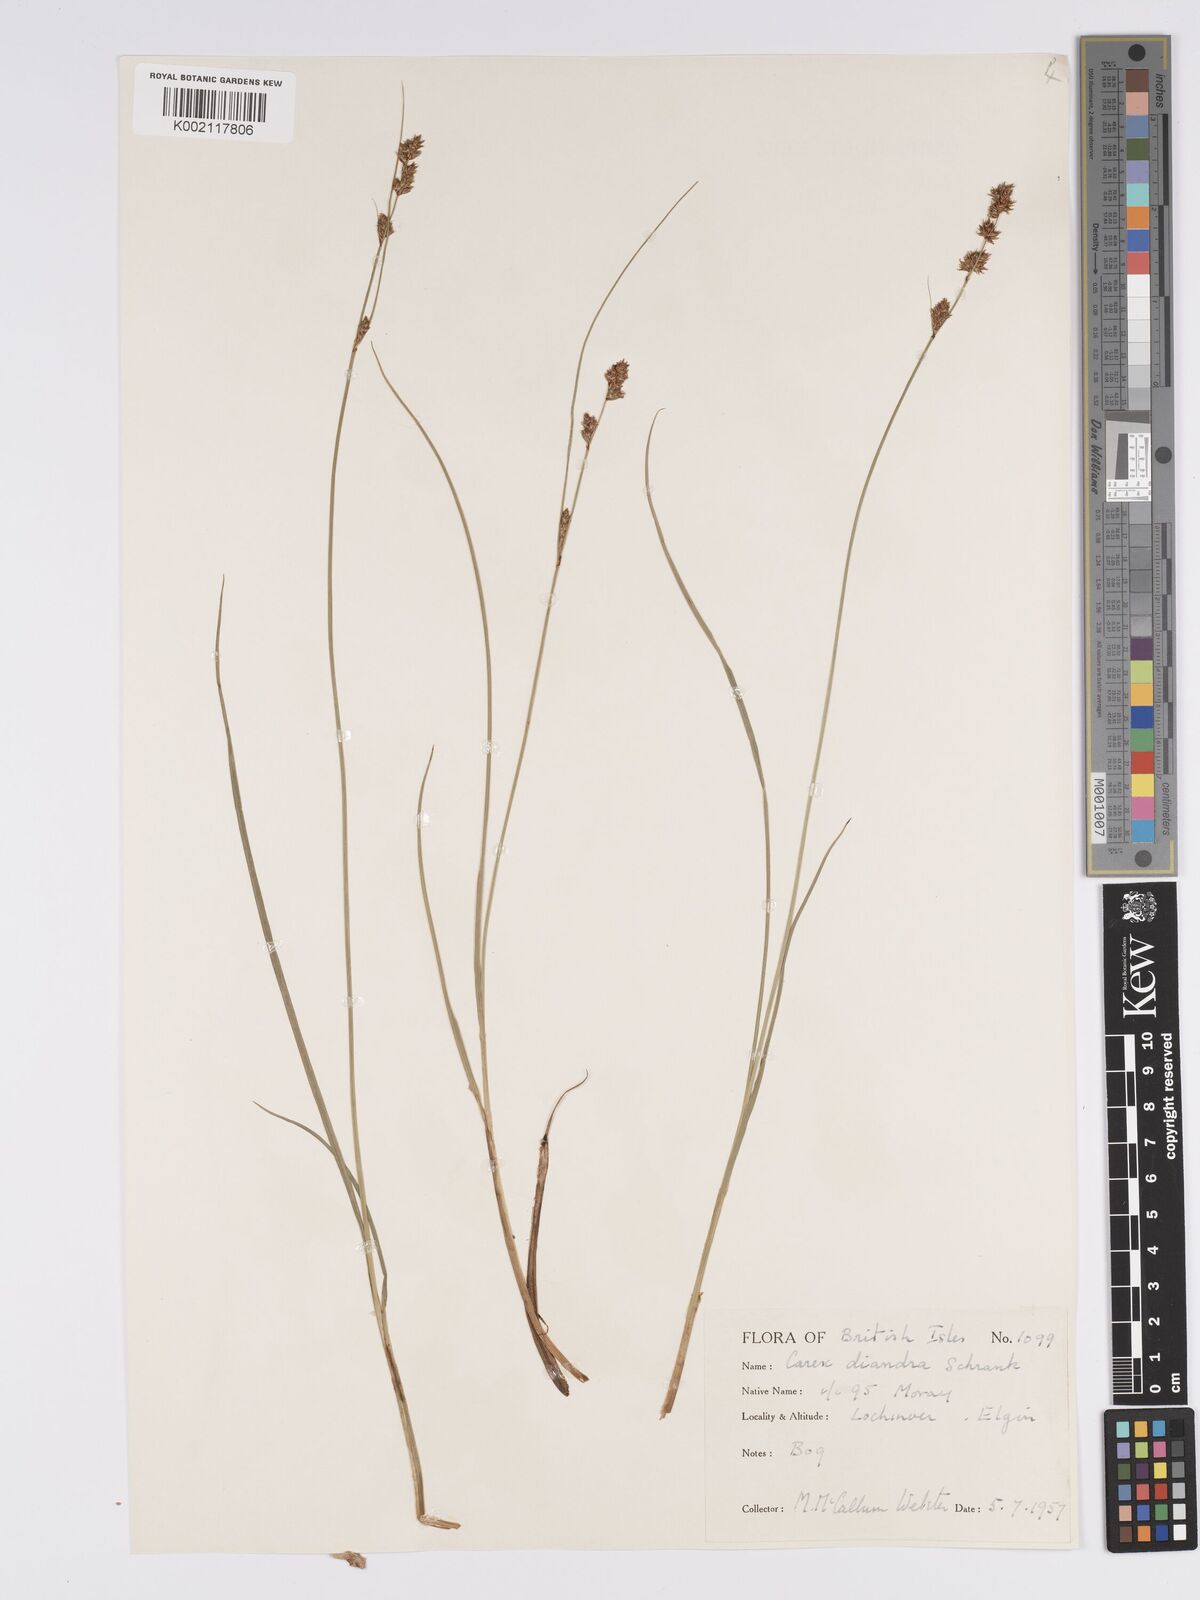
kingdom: Plantae
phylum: Tracheophyta
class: Liliopsida
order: Poales
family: Cyperaceae
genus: Carex
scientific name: Carex diandra
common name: Lesser tussock-sedge
